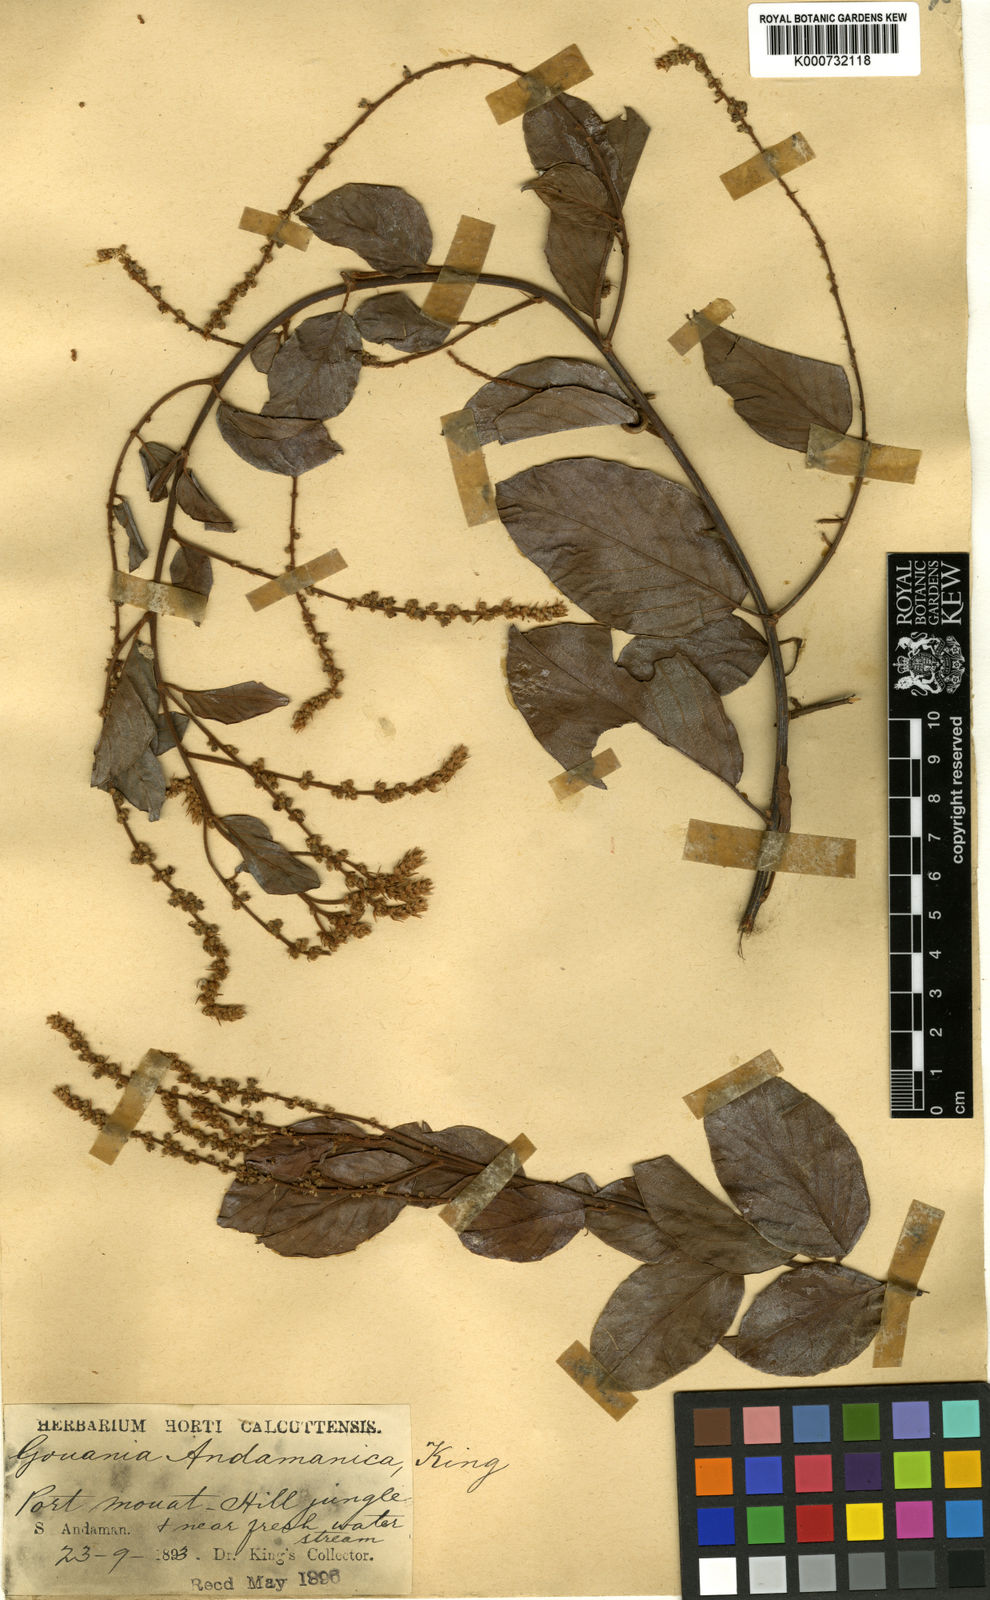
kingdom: Plantae
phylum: Tracheophyta
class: Magnoliopsida
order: Rosales
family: Rhamnaceae
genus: Gouania
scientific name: Gouania andamanica
